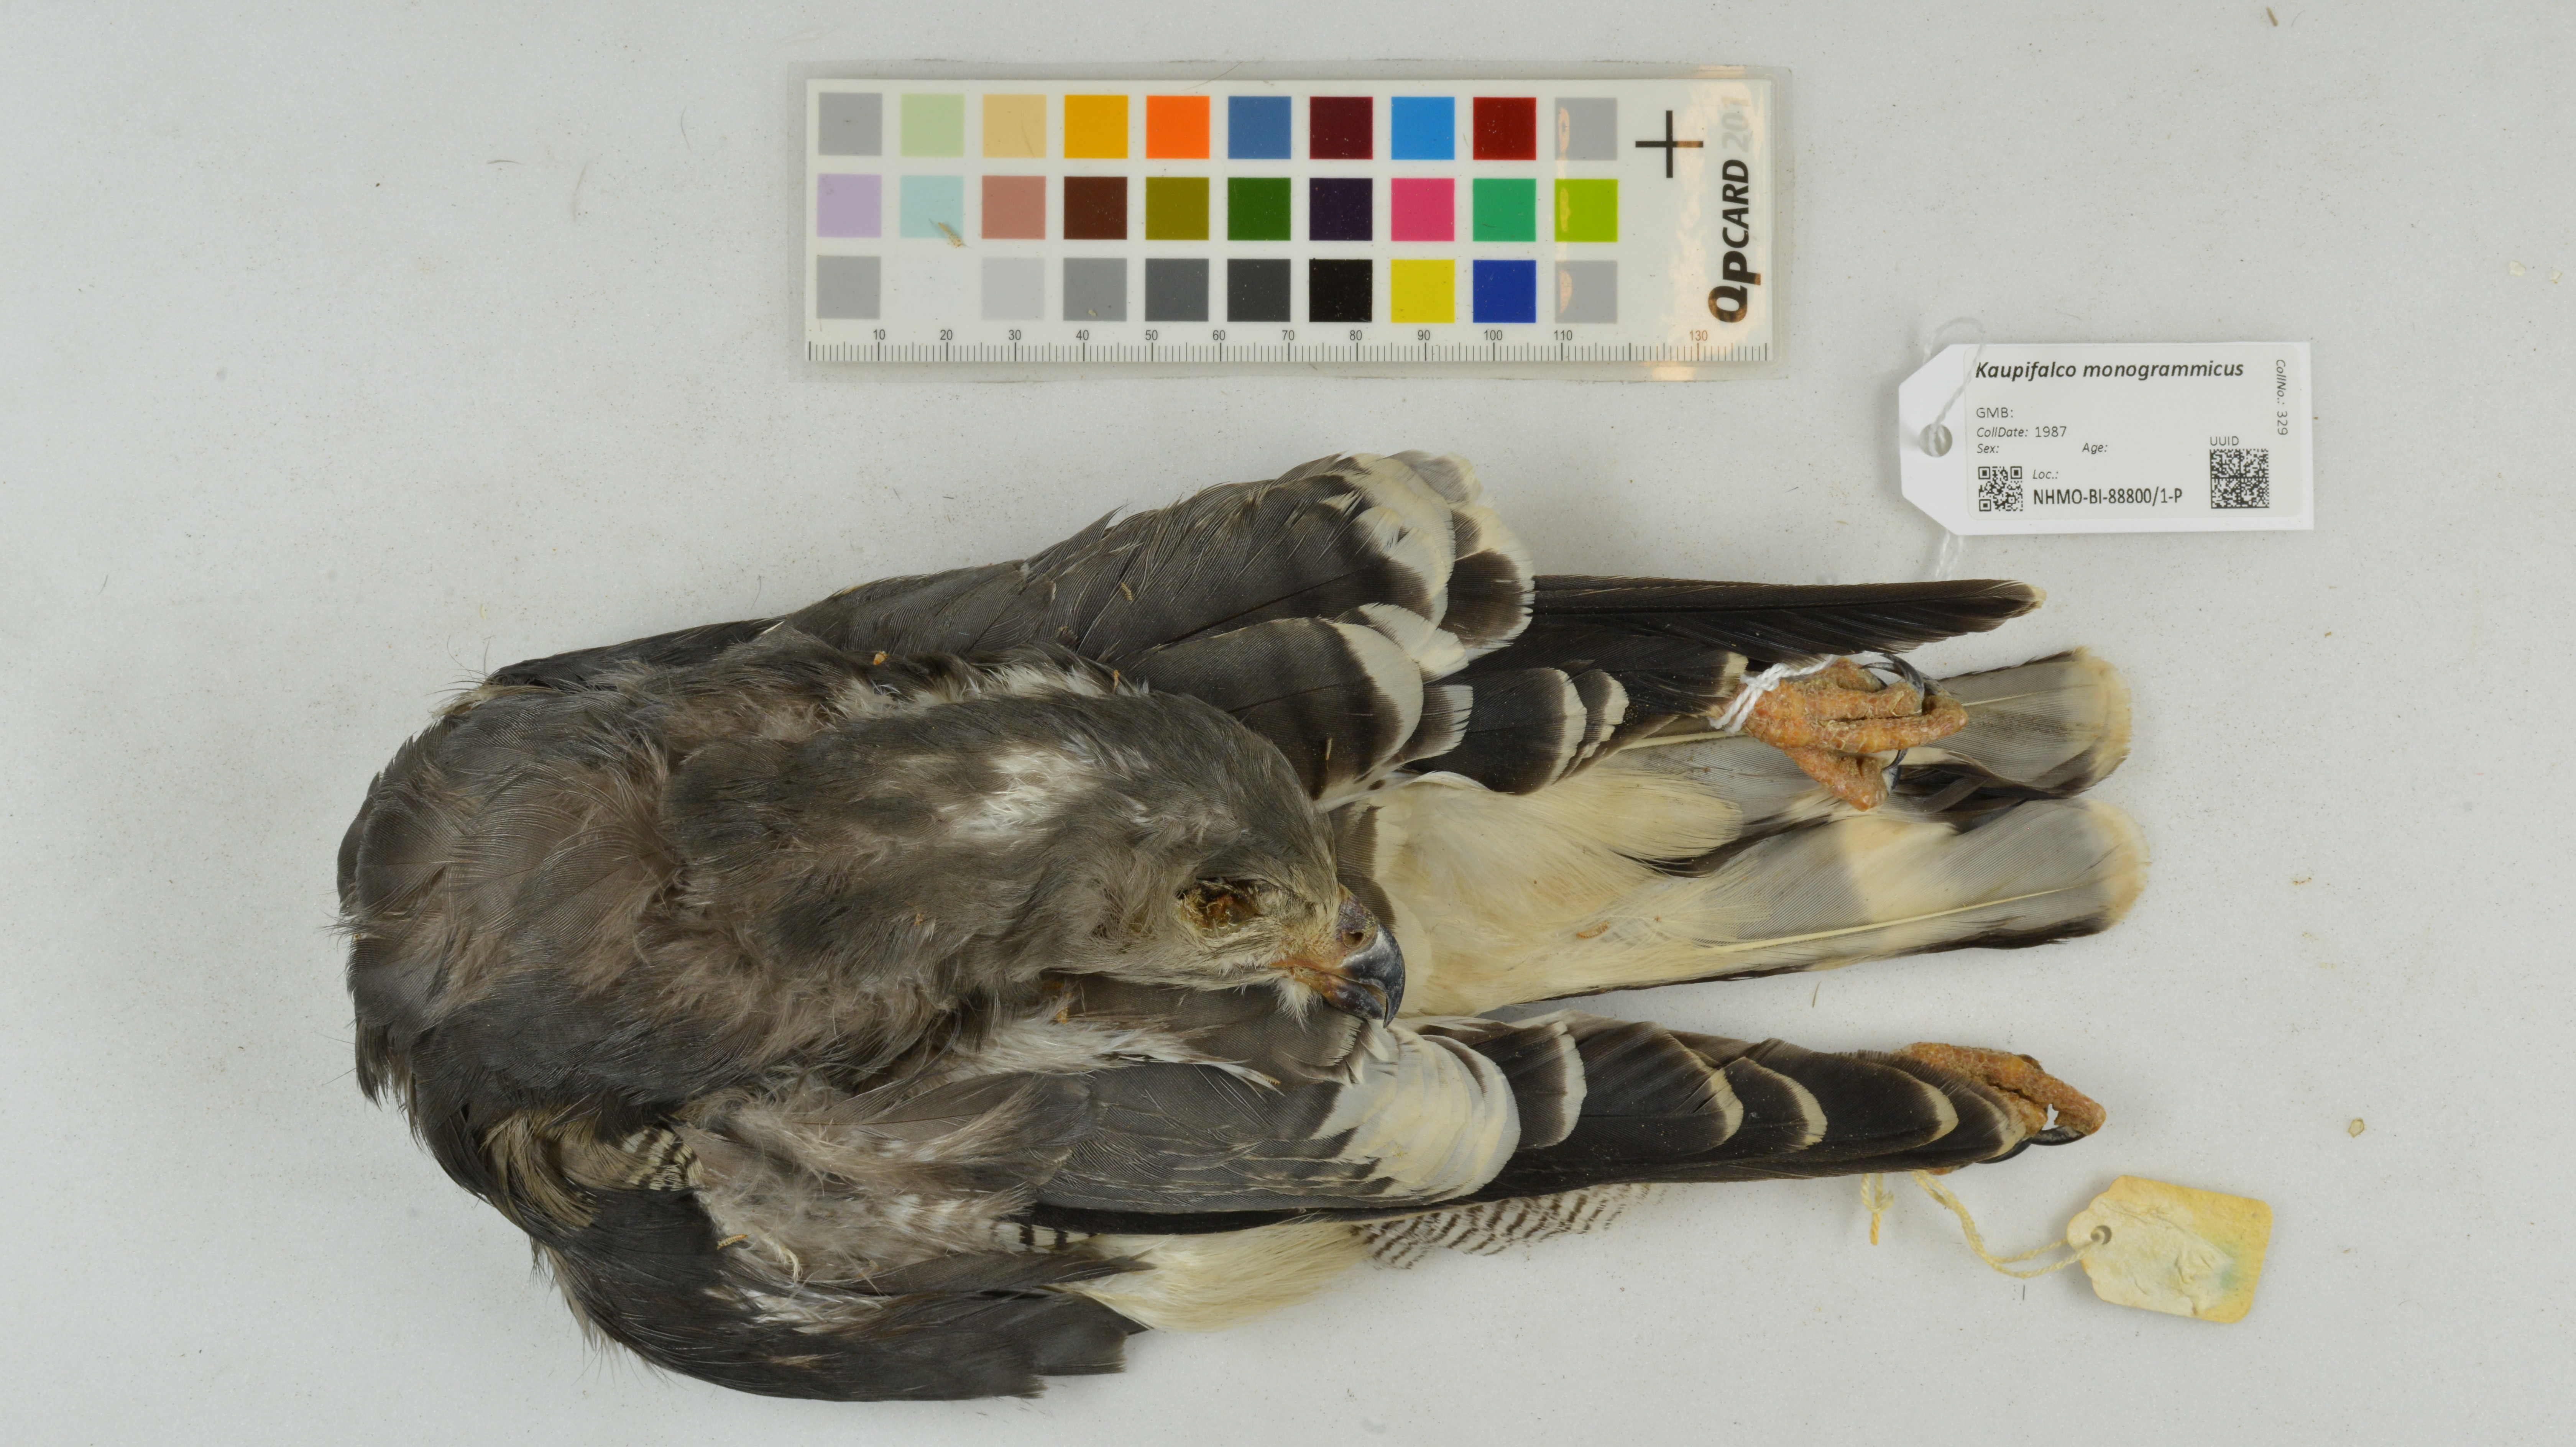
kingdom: Animalia
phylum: Chordata
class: Aves
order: Accipitriformes
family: Accipitridae
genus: Kaupifalco
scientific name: Kaupifalco monogrammicus
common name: Lizard buzzard
